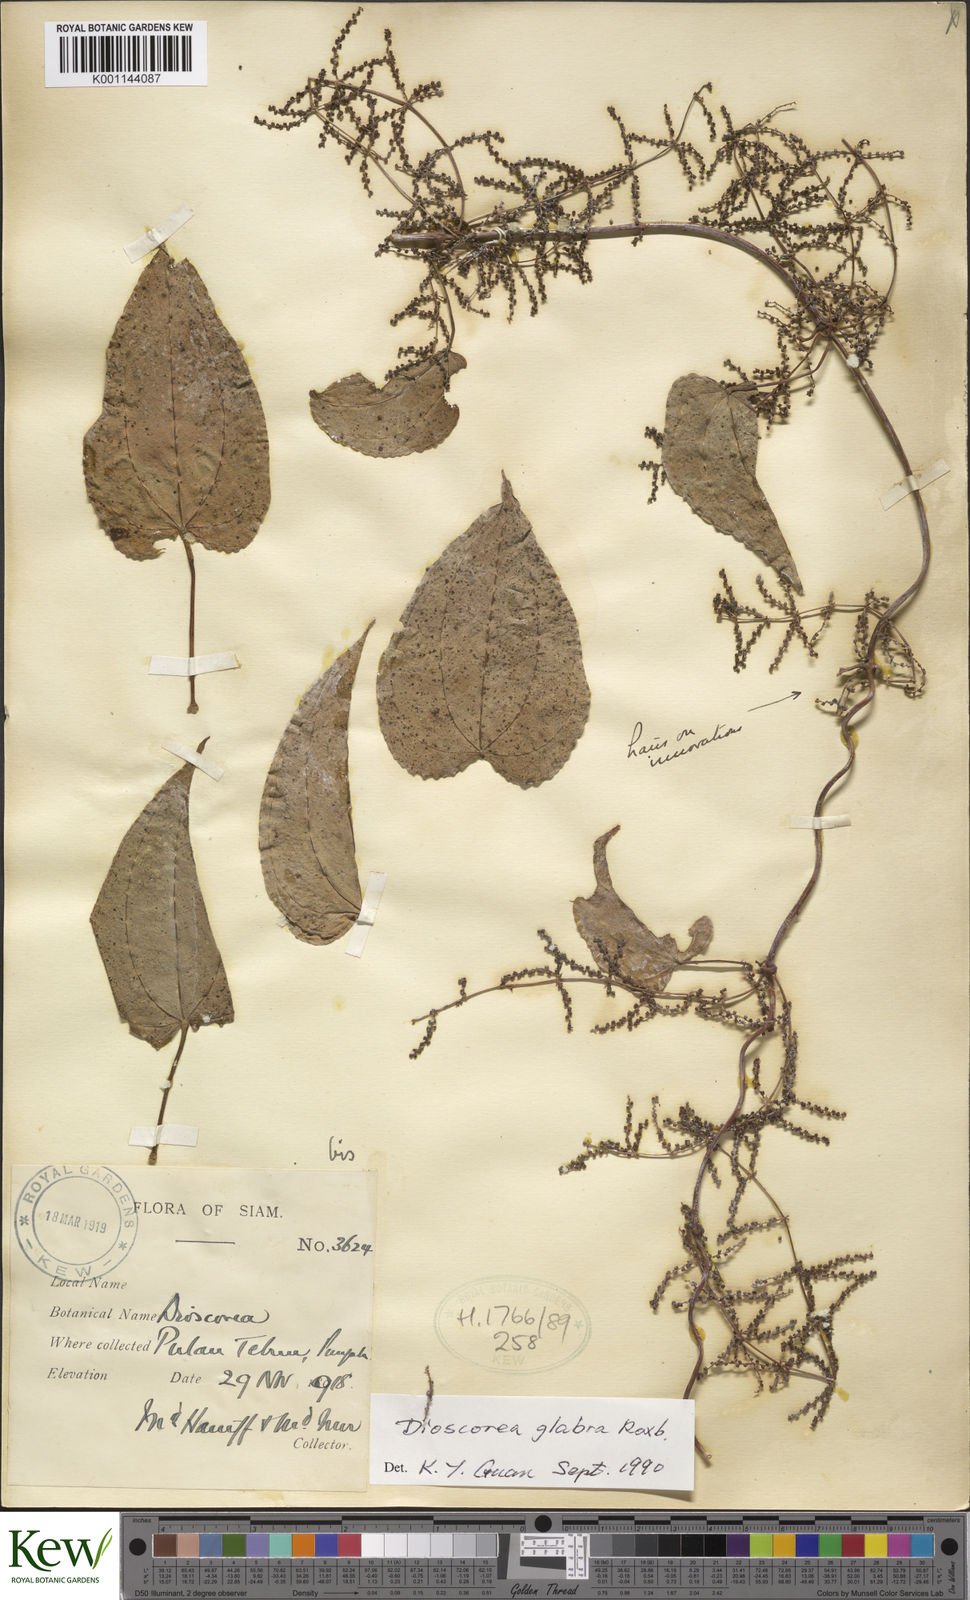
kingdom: Plantae
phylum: Tracheophyta
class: Liliopsida
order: Dioscoreales
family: Dioscoreaceae
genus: Dioscorea
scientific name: Dioscorea glabra
